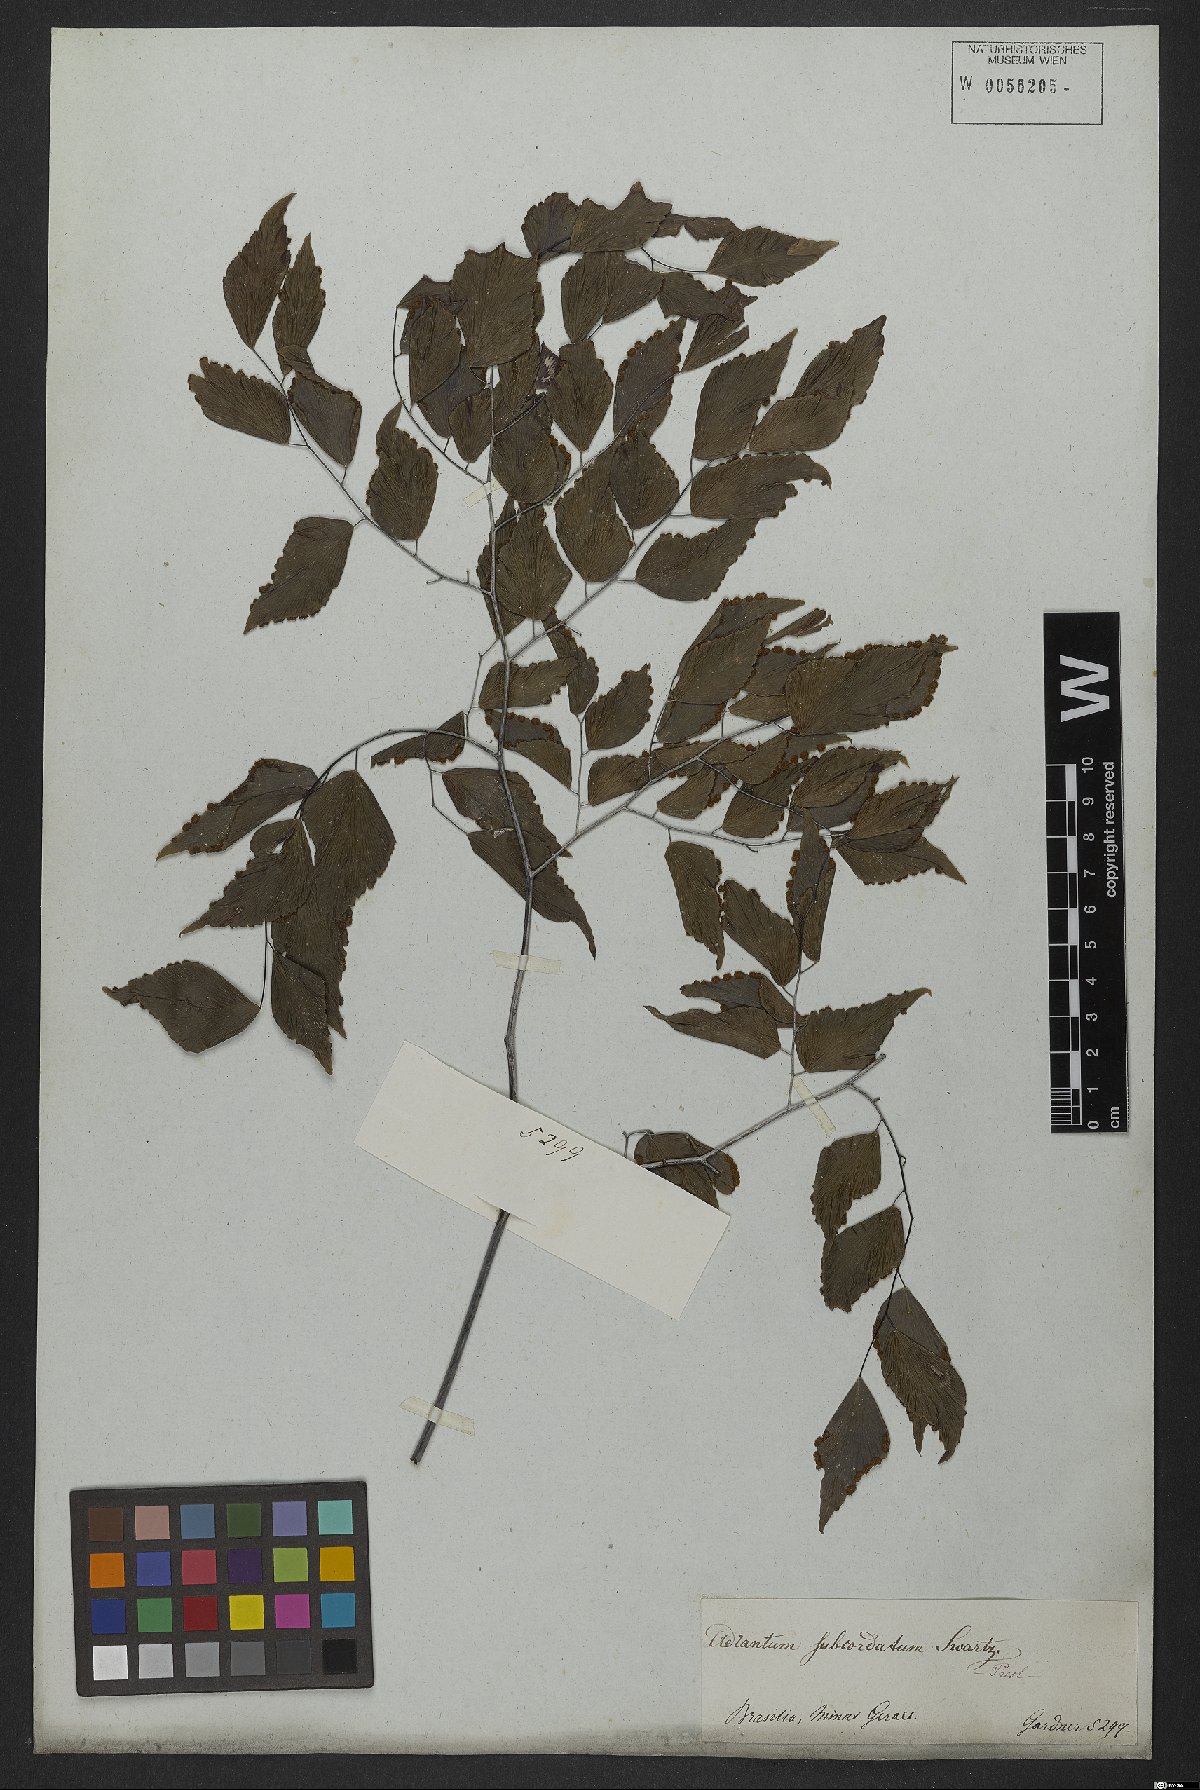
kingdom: Plantae
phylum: Tracheophyta
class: Polypodiopsida
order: Polypodiales
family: Pteridaceae
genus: Adiantum
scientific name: Adiantum subcordatum
